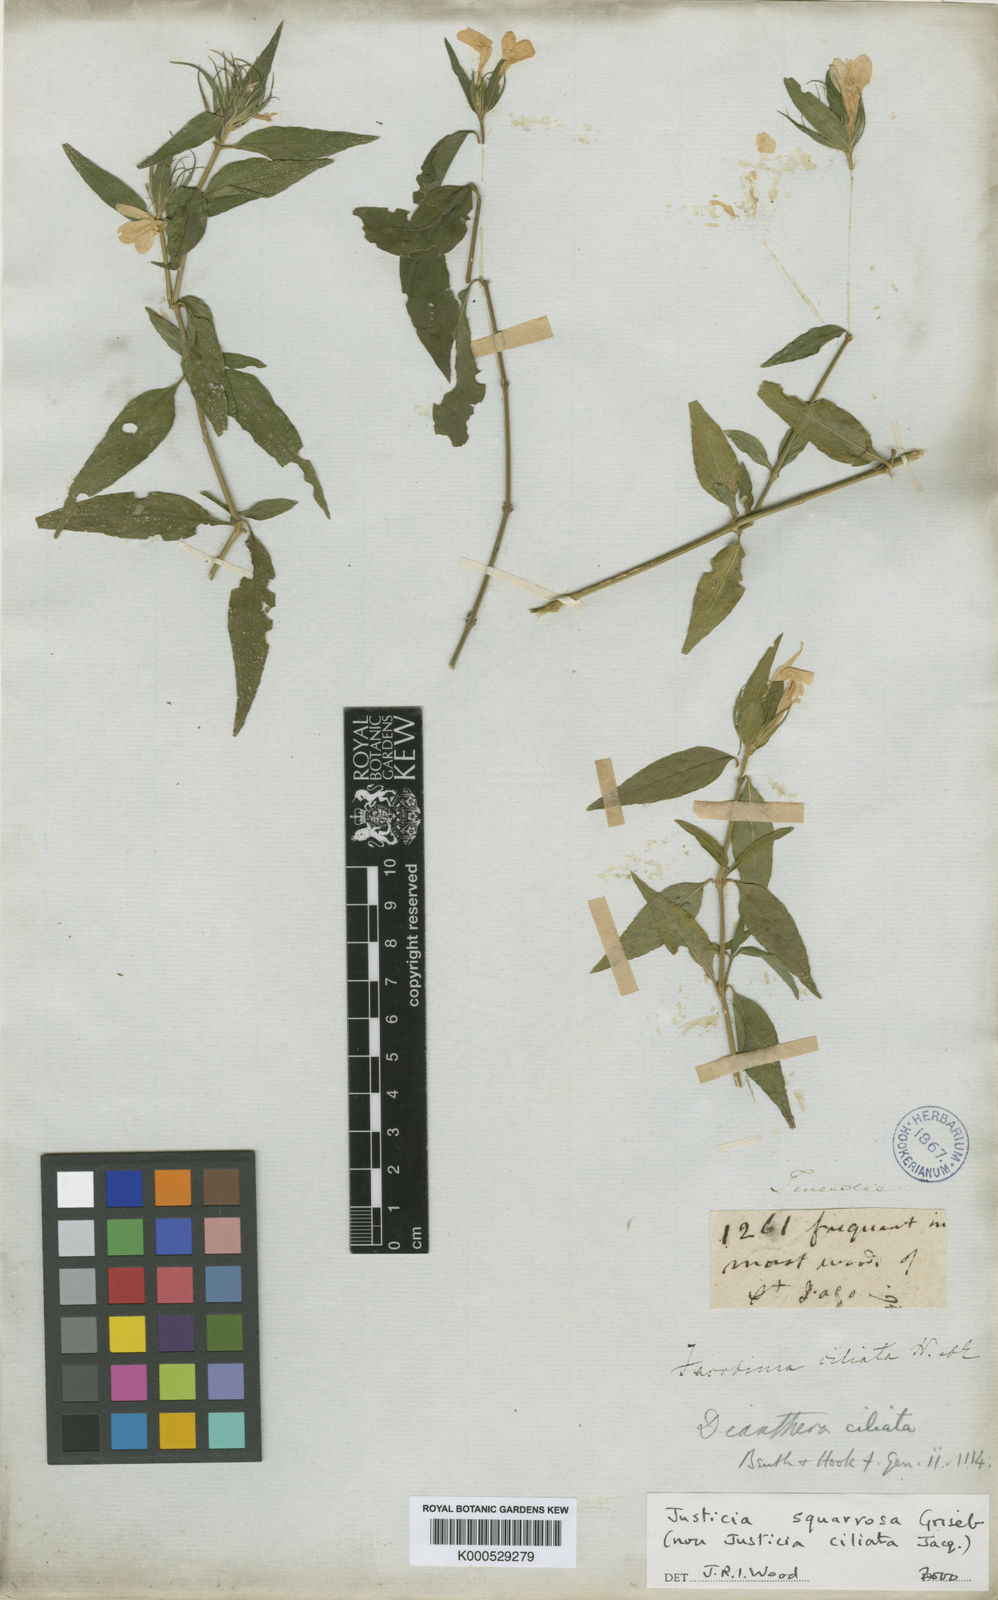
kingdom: Plantae
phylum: Tracheophyta
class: Magnoliopsida
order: Lamiales
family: Acanthaceae
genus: Justicia
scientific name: Justicia squarrosa
